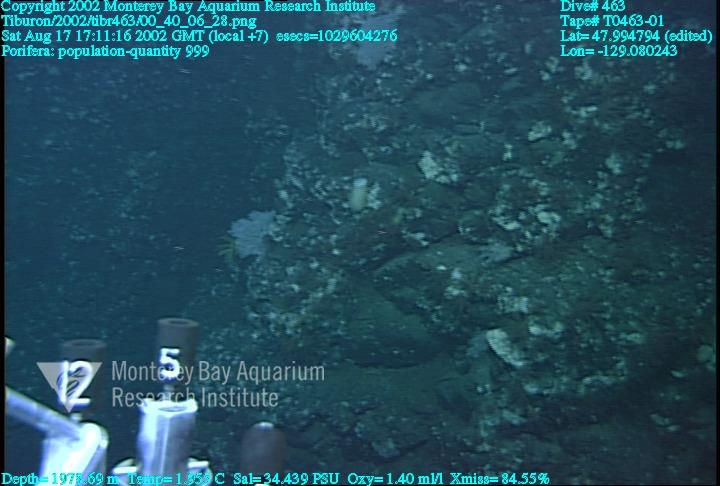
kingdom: Animalia
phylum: Porifera
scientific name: Porifera
